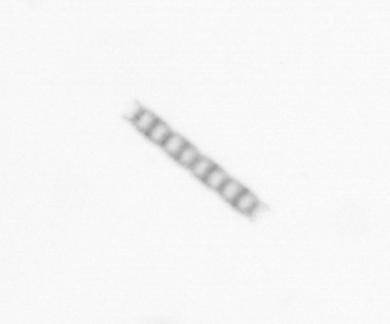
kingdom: Chromista
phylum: Ochrophyta
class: Bacillariophyceae
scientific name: Bacillariophyceae
